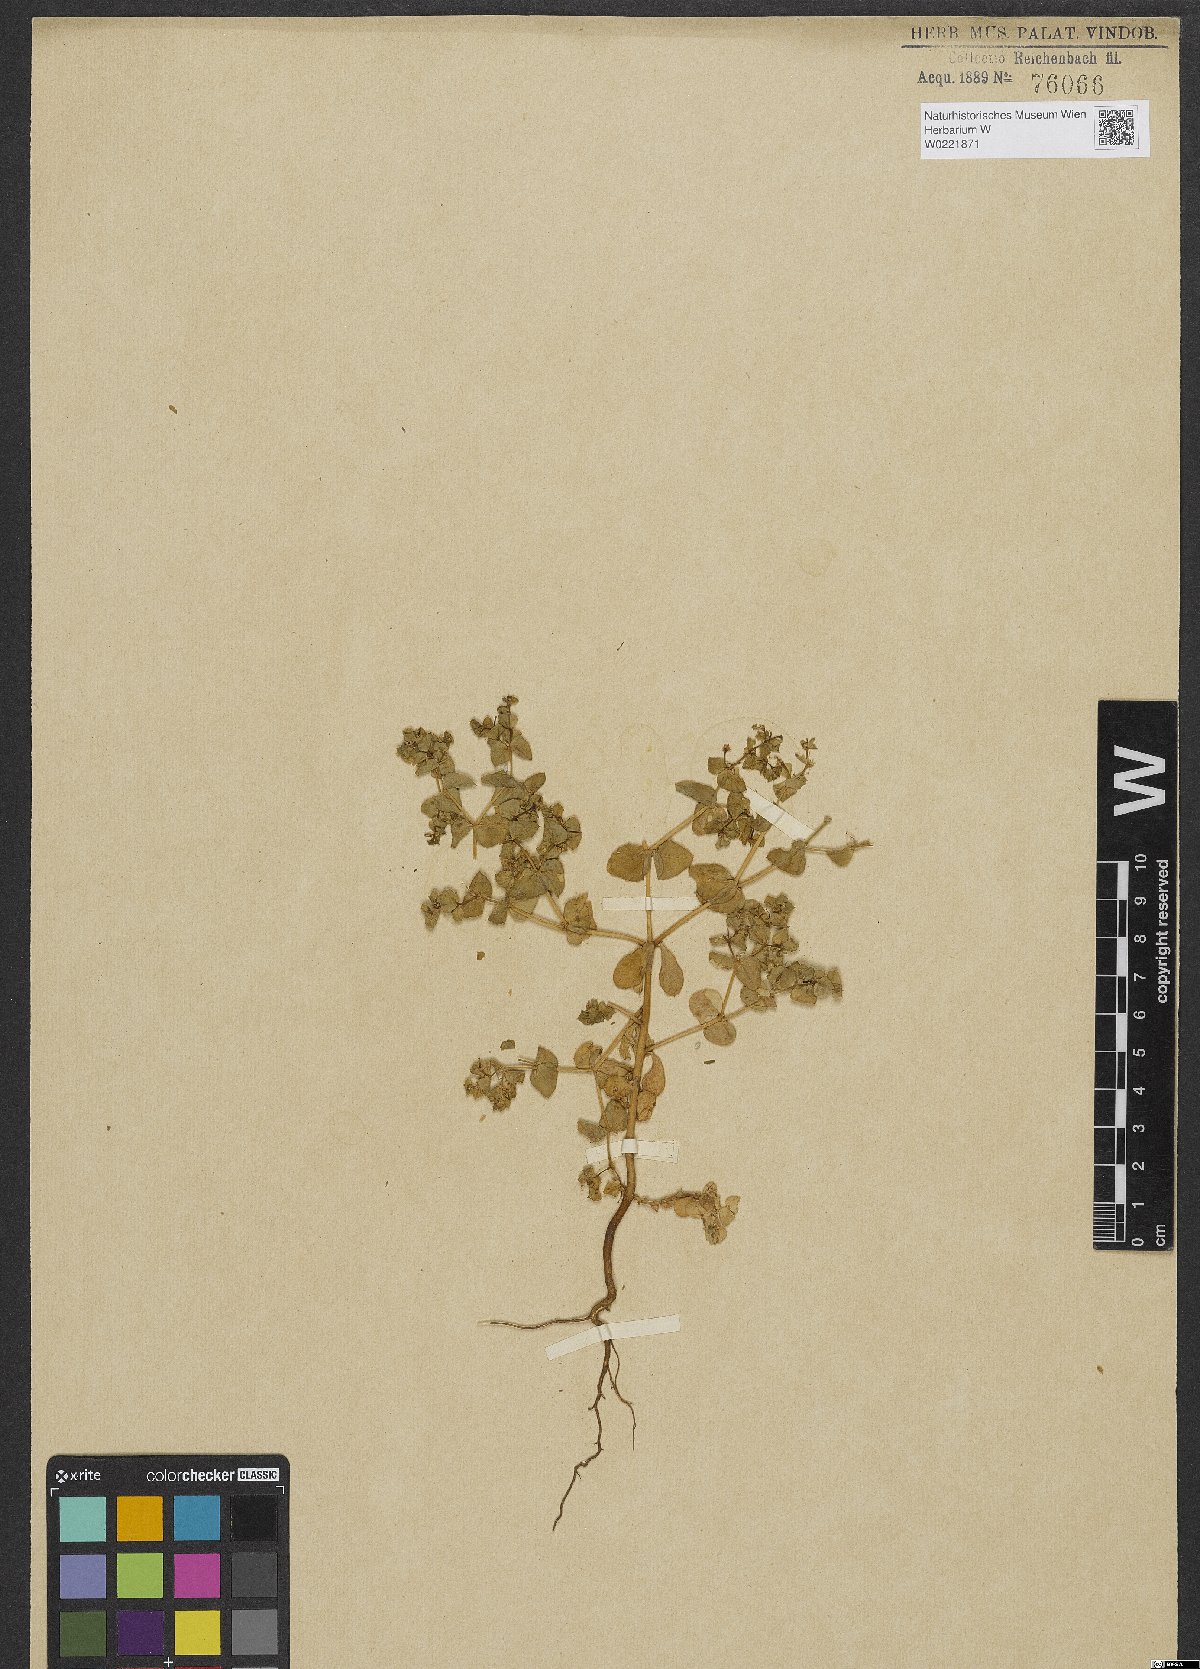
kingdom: Plantae
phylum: Tracheophyta
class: Magnoliopsida
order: Malpighiales
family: Euphorbiaceae
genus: Euphorbia
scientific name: Euphorbia aulacosperma
